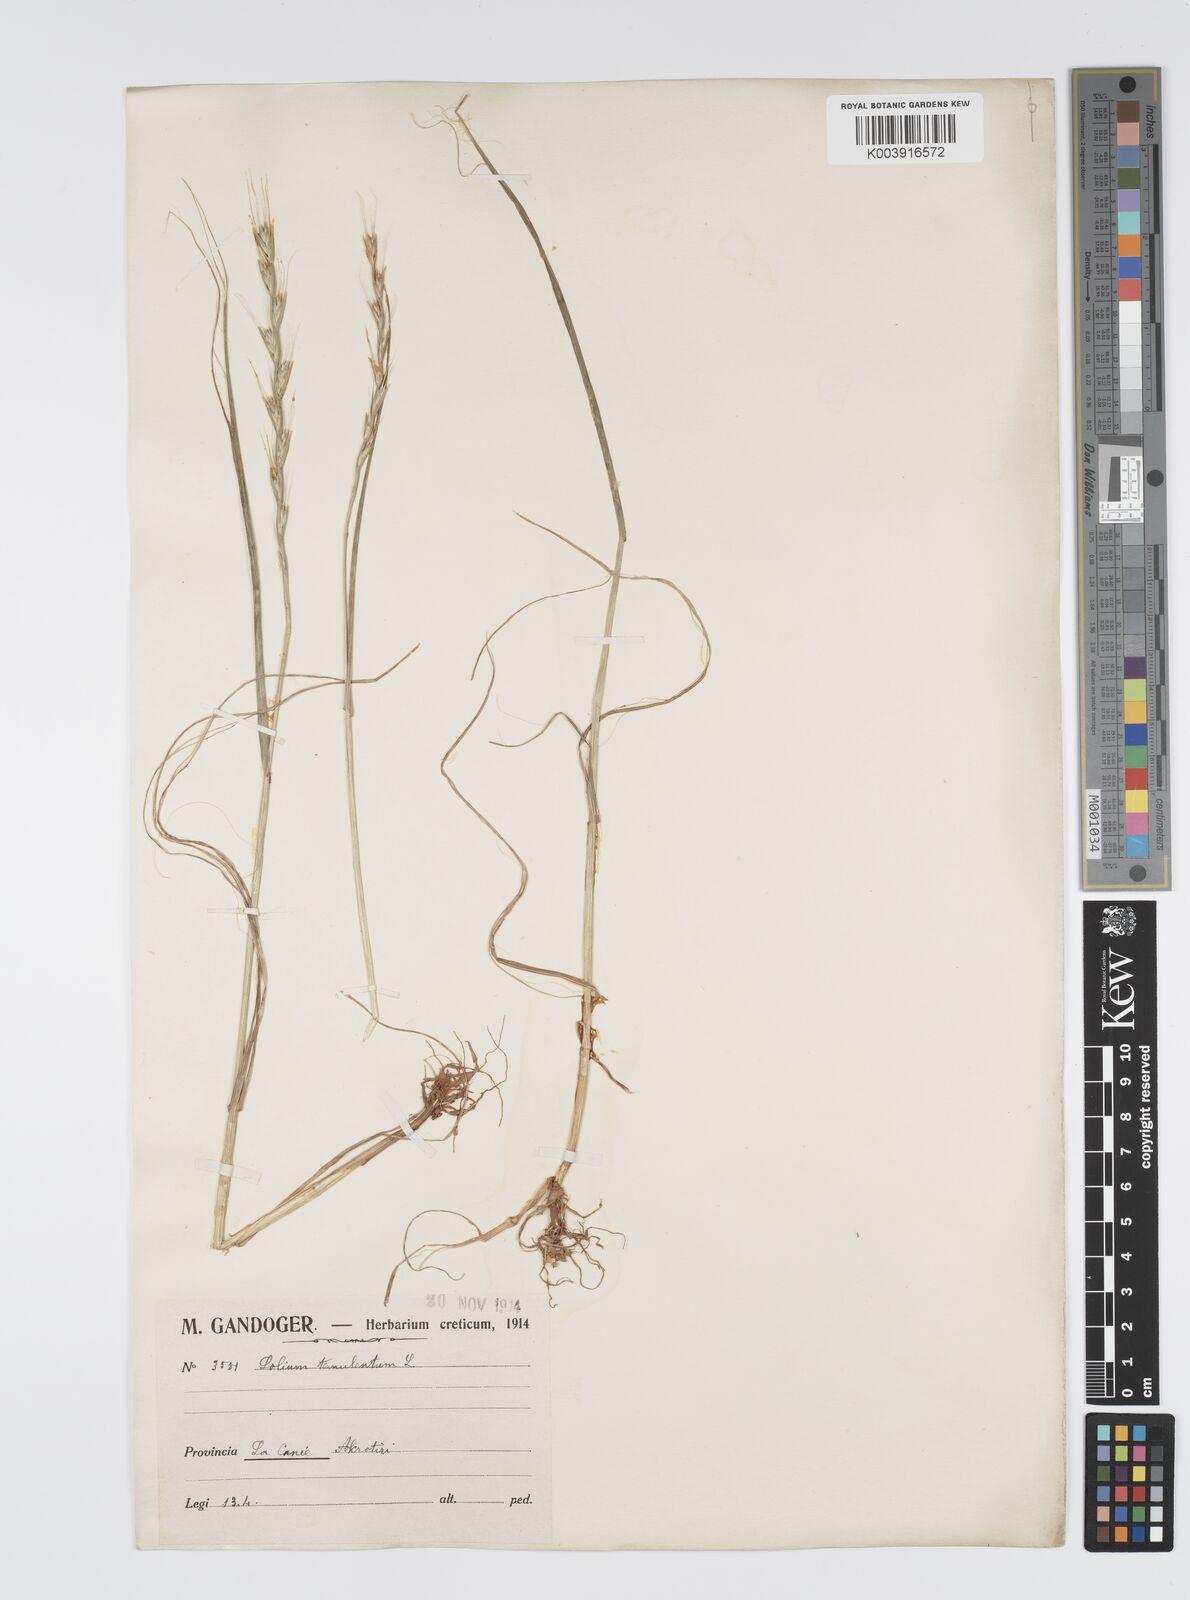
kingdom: Plantae
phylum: Tracheophyta
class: Liliopsida
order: Poales
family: Poaceae
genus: Lolium
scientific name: Lolium temulentum
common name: Darnel
